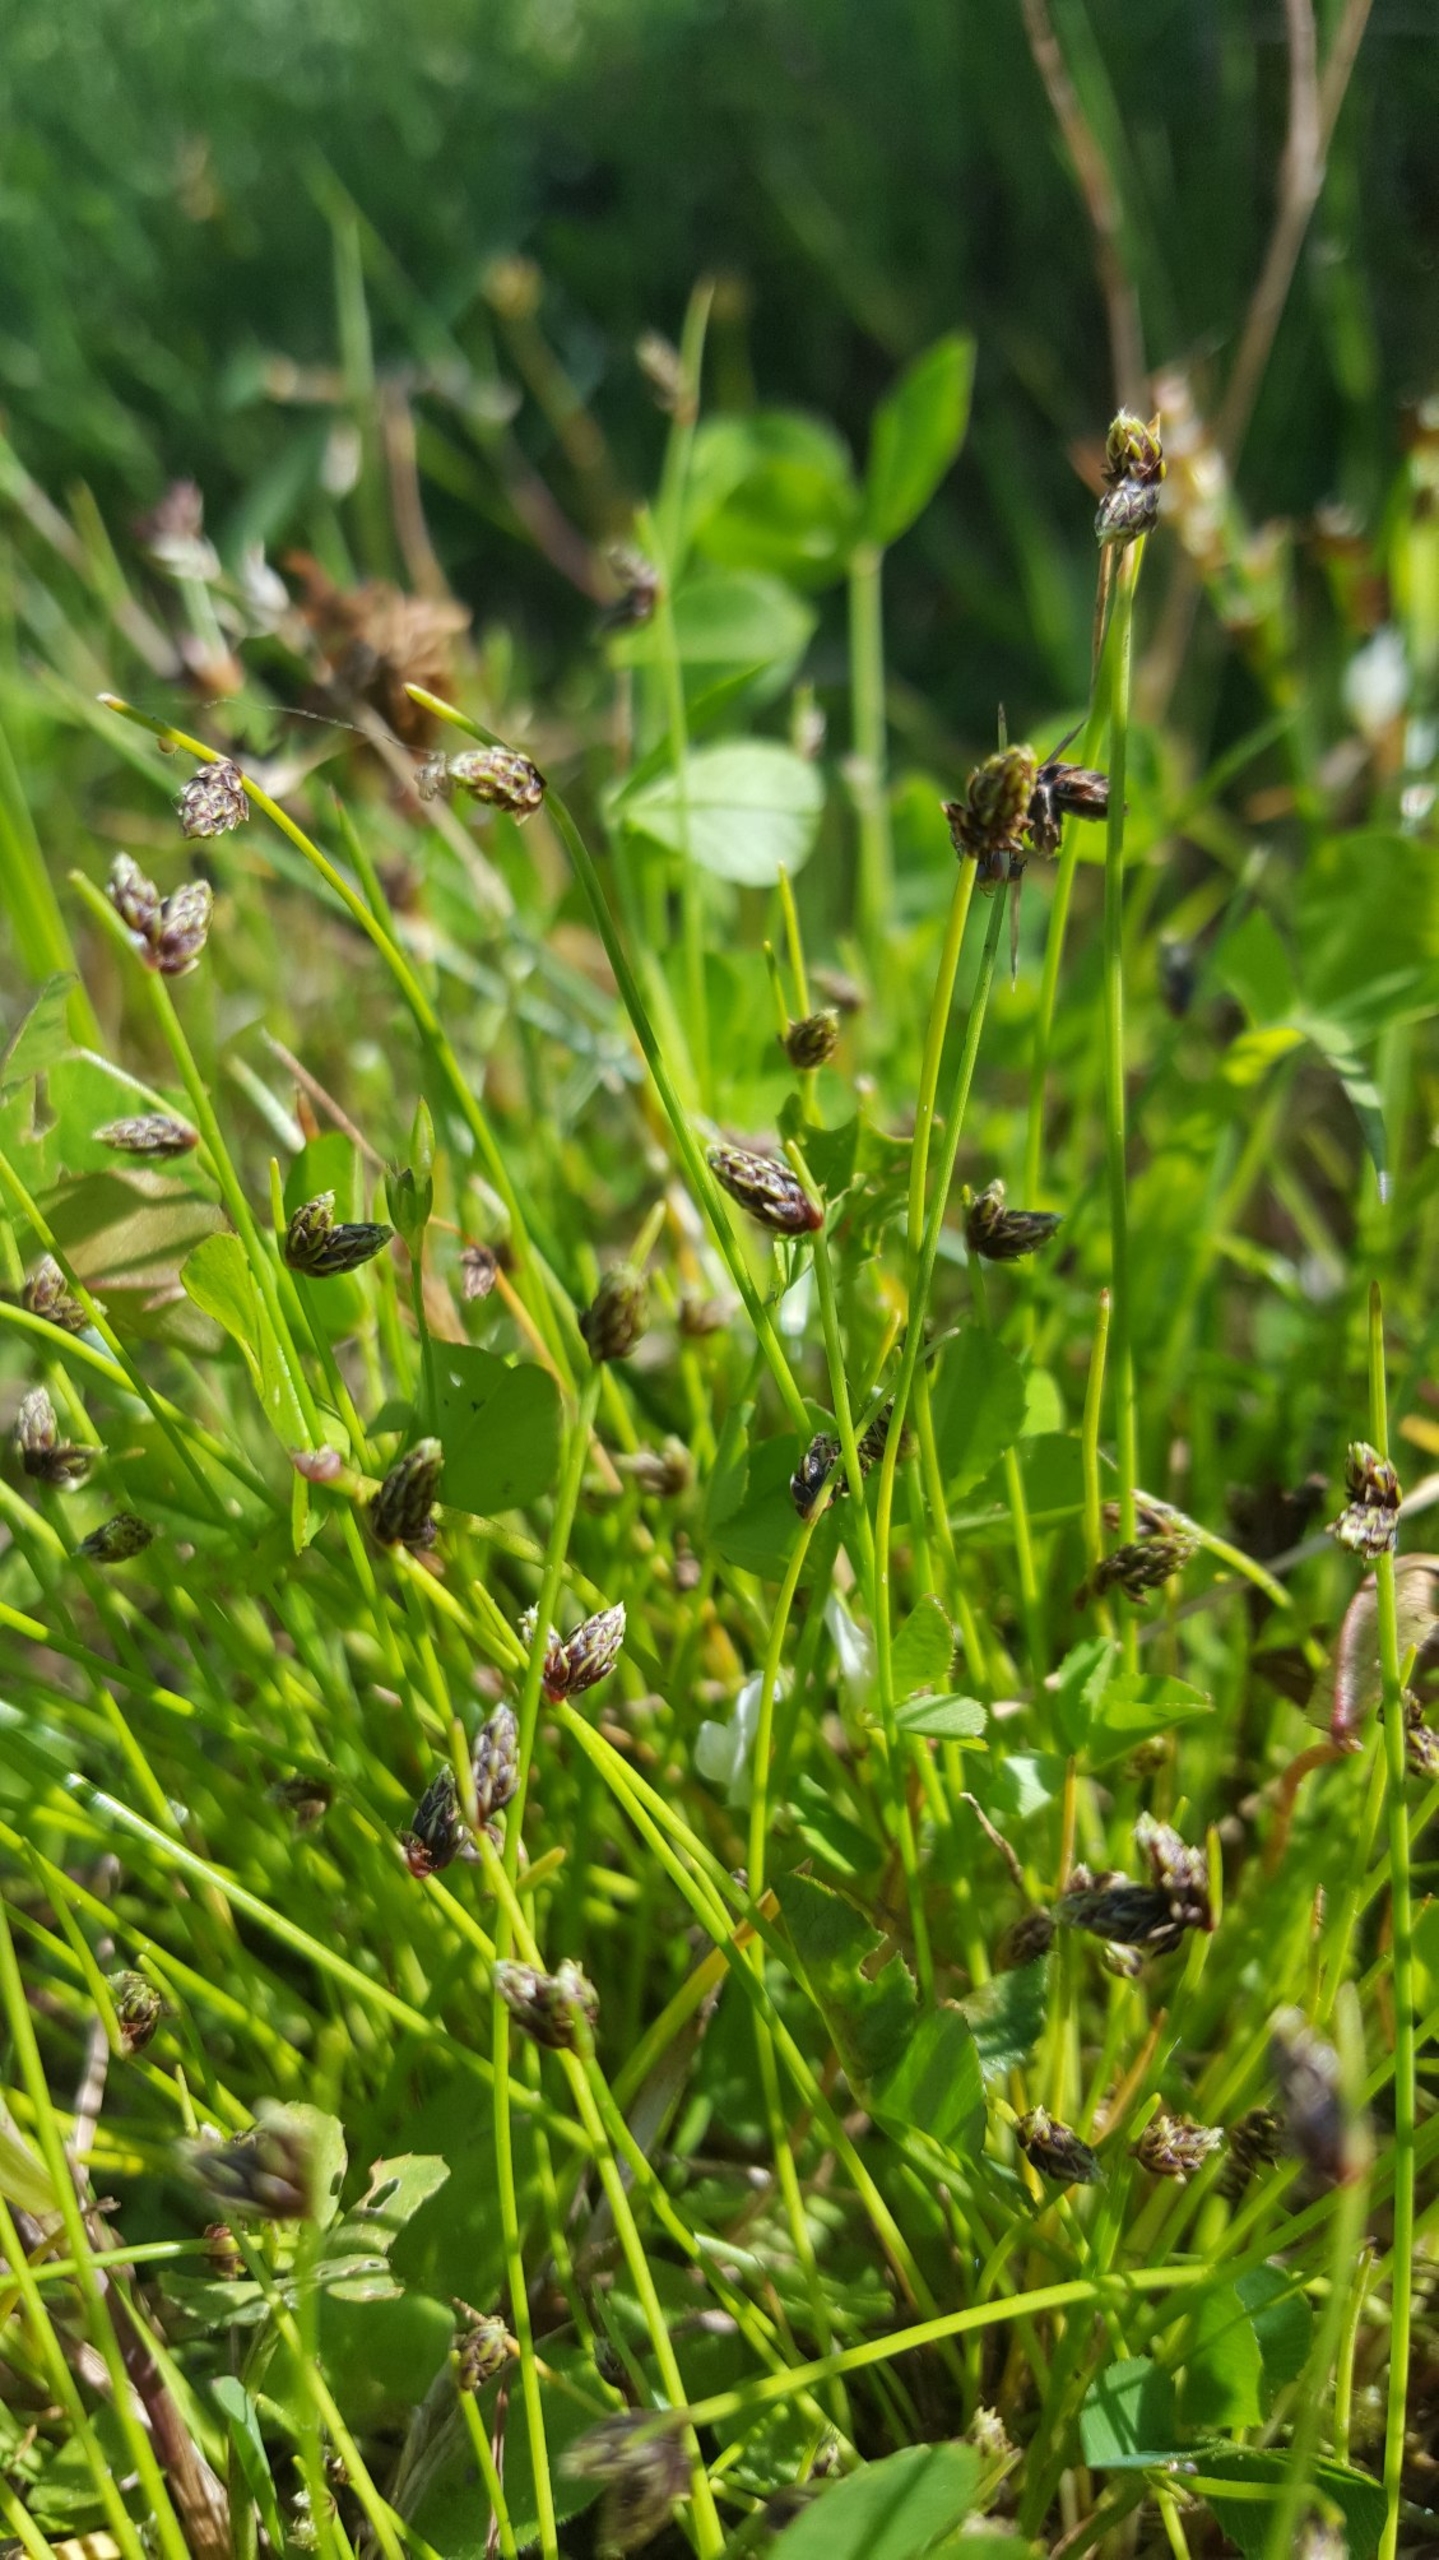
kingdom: Plantae
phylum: Tracheophyta
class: Liliopsida
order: Poales
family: Cyperaceae
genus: Isolepis
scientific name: Isolepis setacea
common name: Børste-kogleaks
